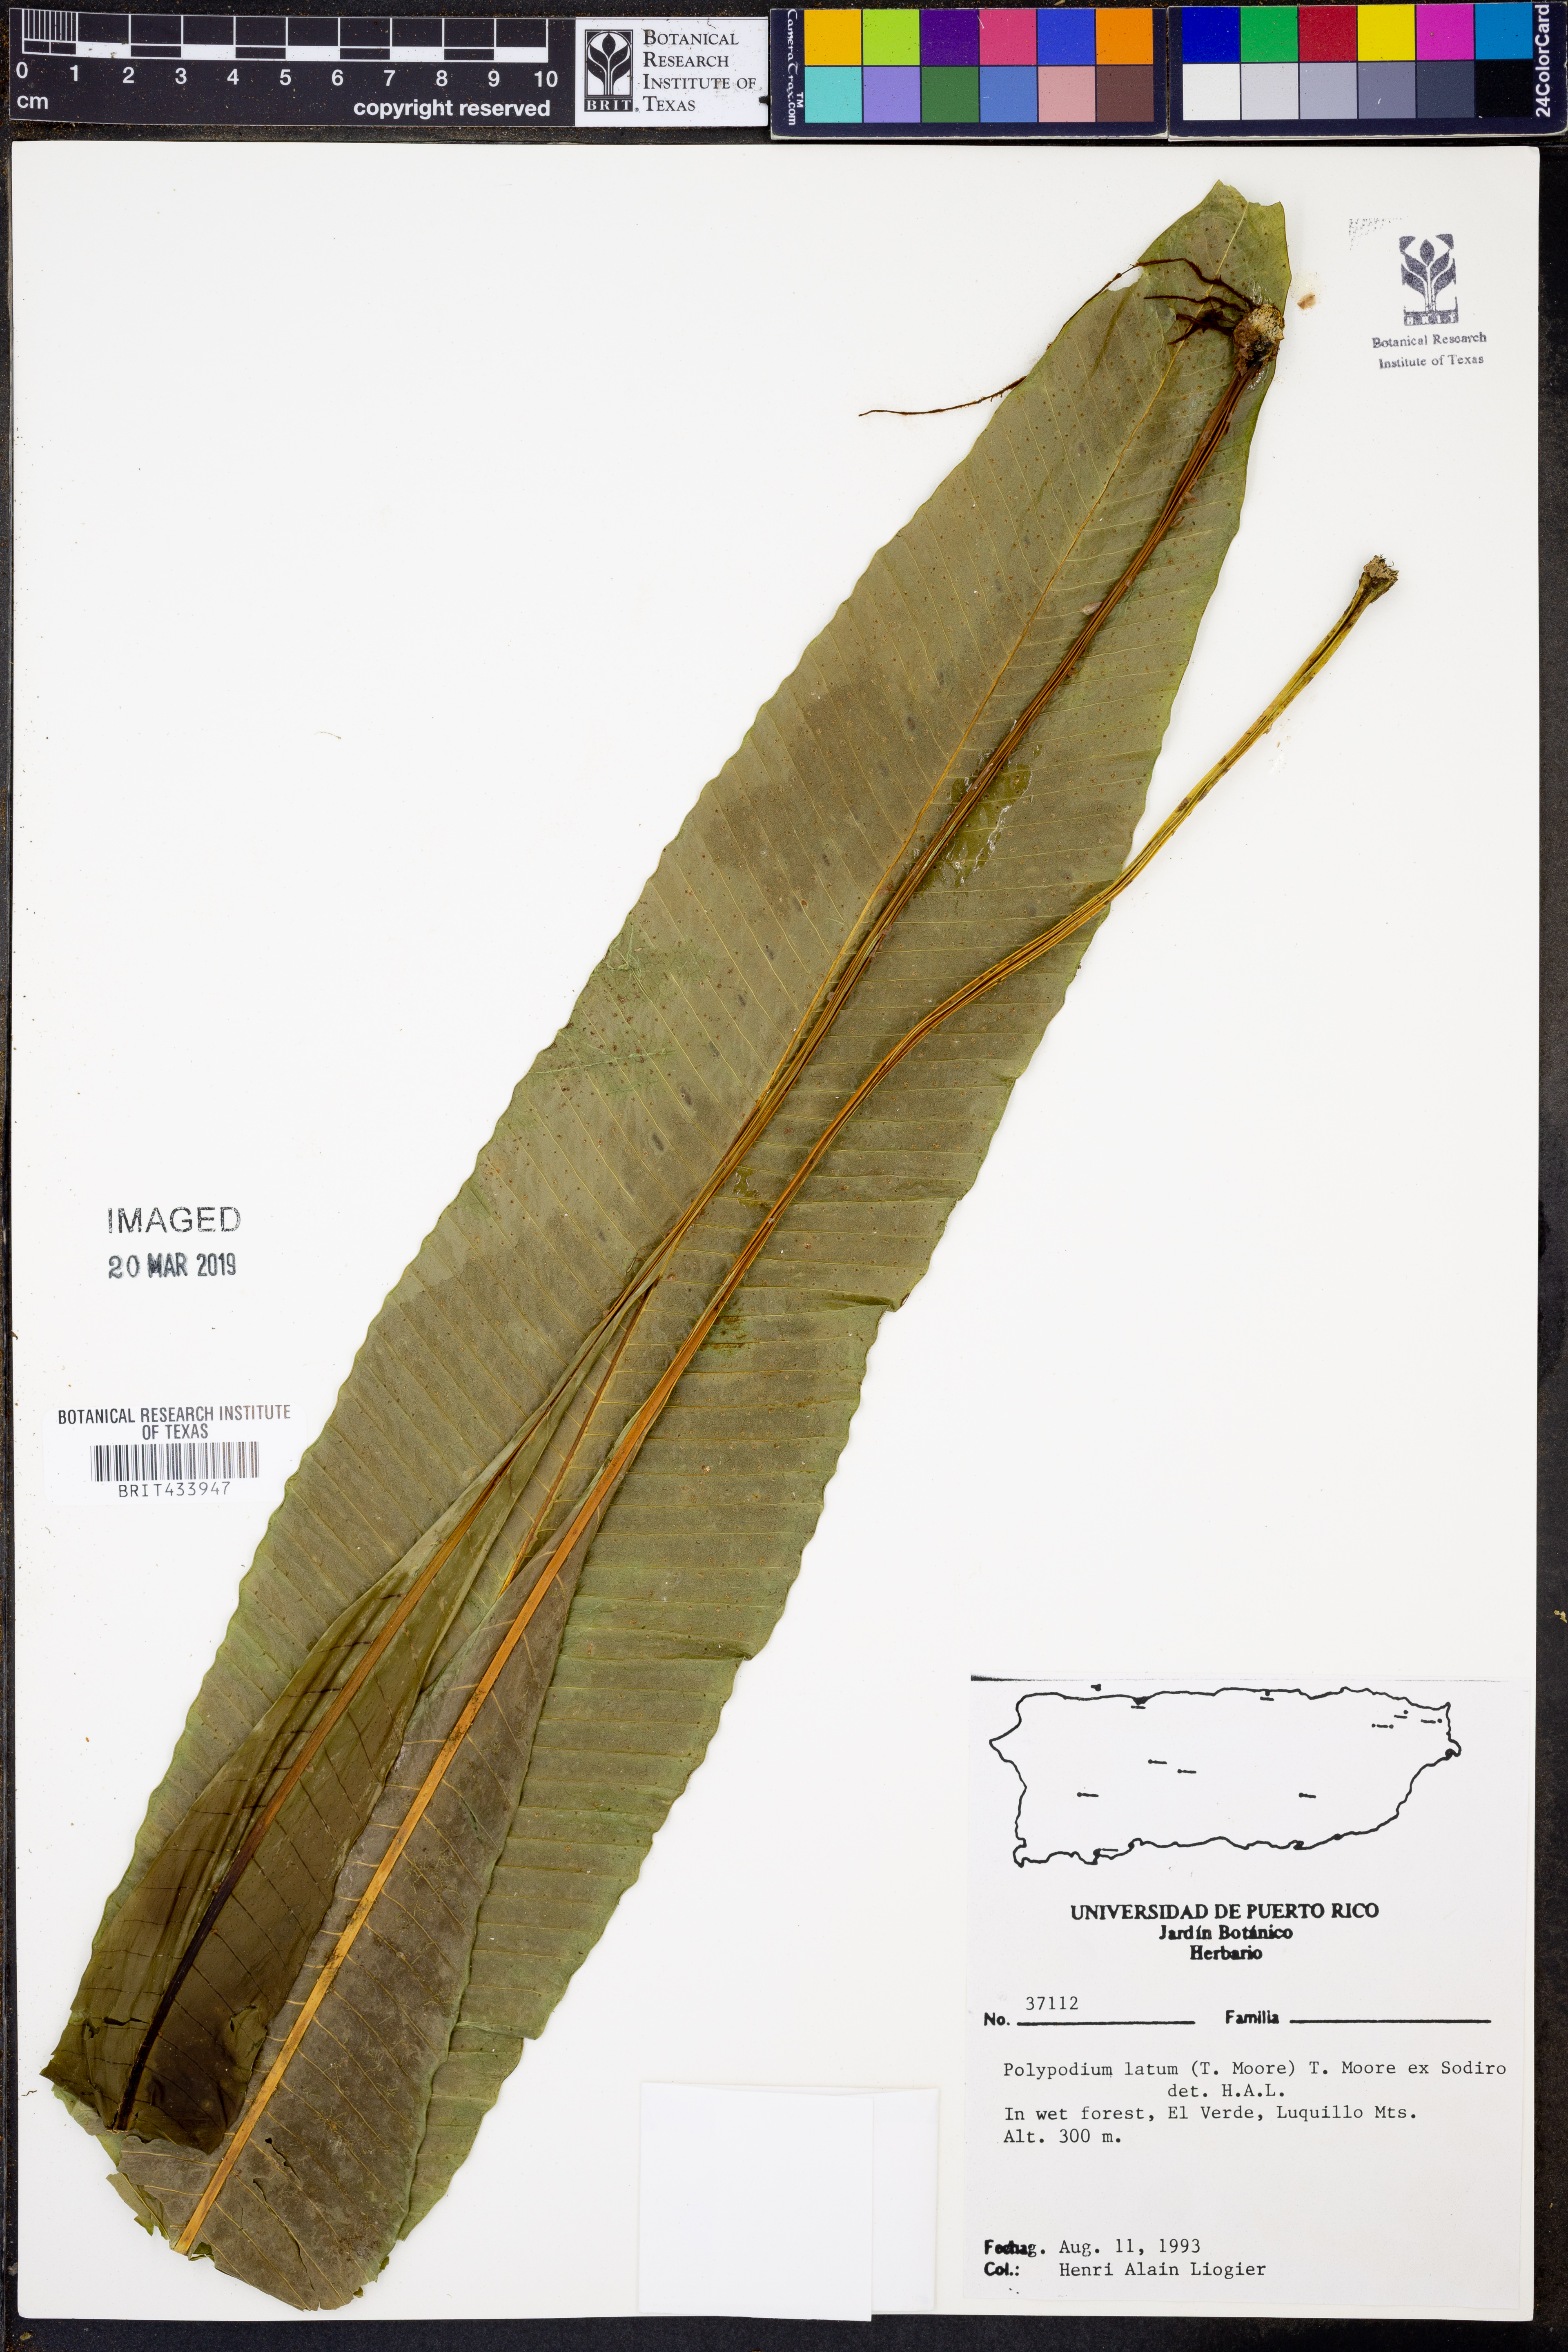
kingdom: Plantae
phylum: Tracheophyta
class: Polypodiopsida
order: Polypodiales
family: Polypodiaceae
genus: Campyloneurum
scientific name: Campyloneurum brevifolium
